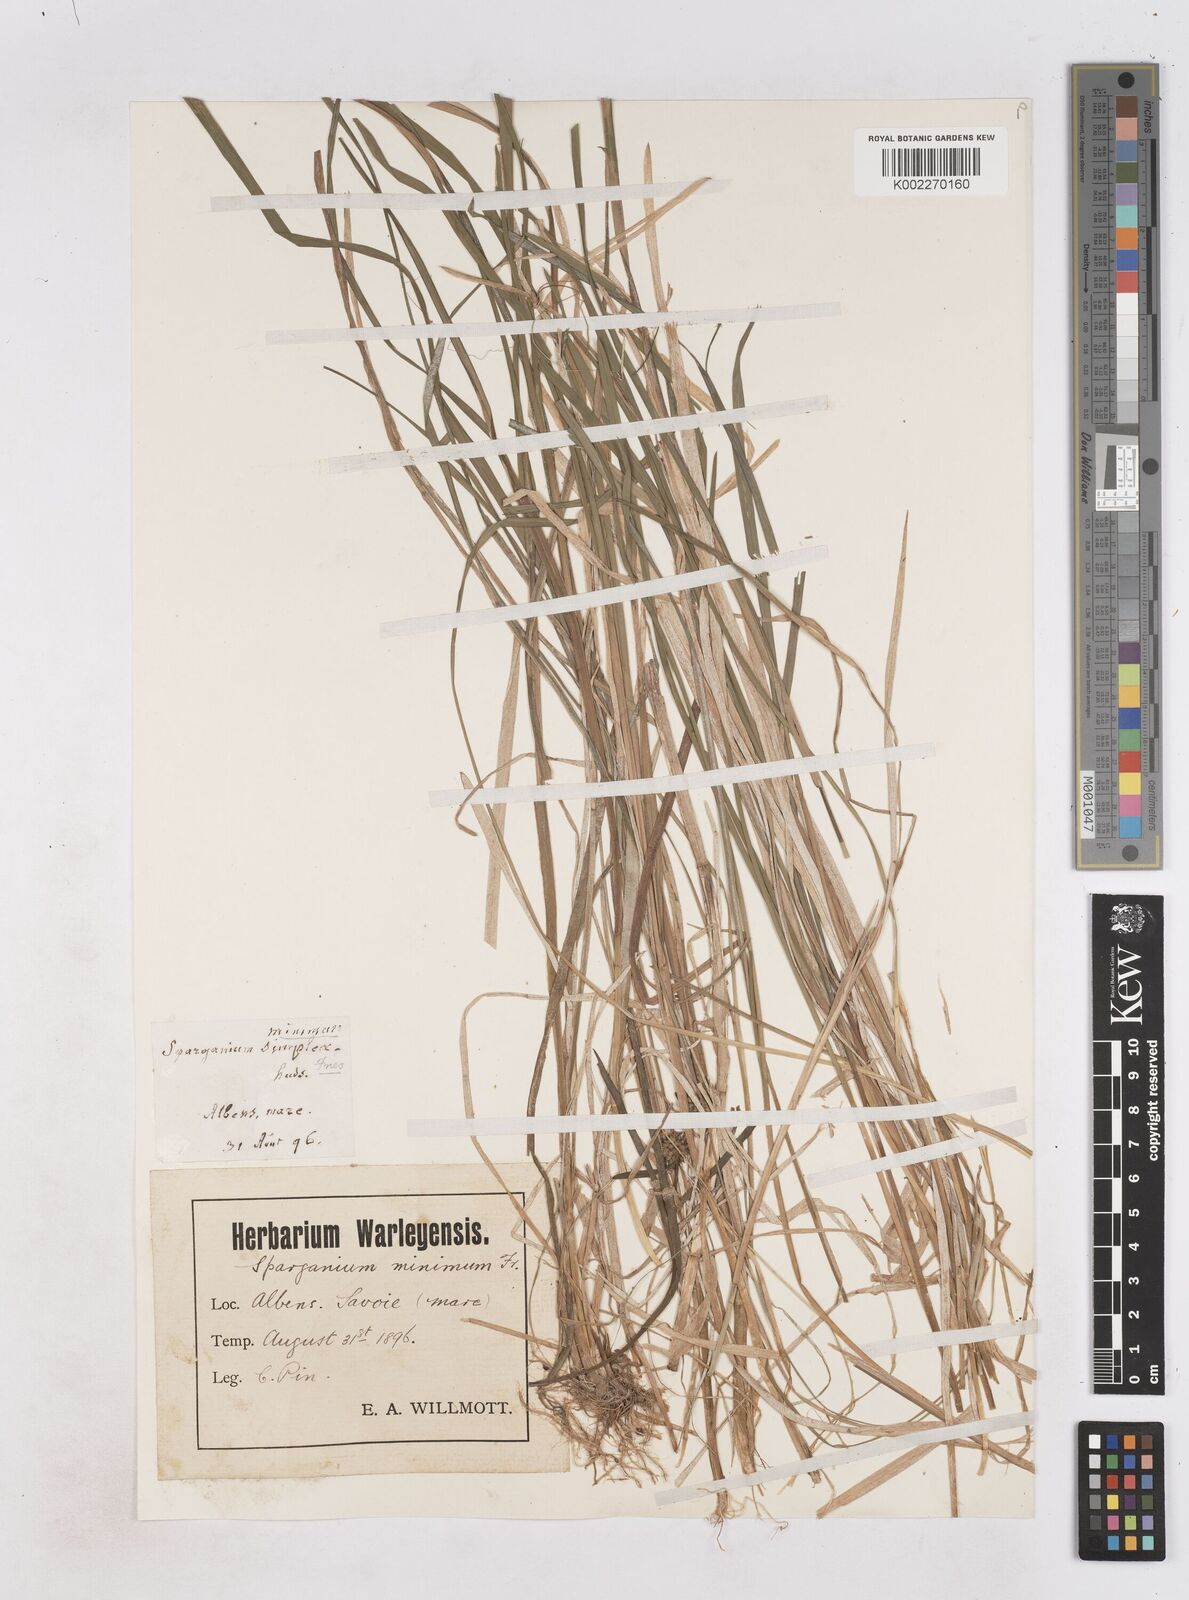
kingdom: Plantae
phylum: Tracheophyta
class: Liliopsida
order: Poales
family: Typhaceae
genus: Sparganium
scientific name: Sparganium natans
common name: Least bur-reed
